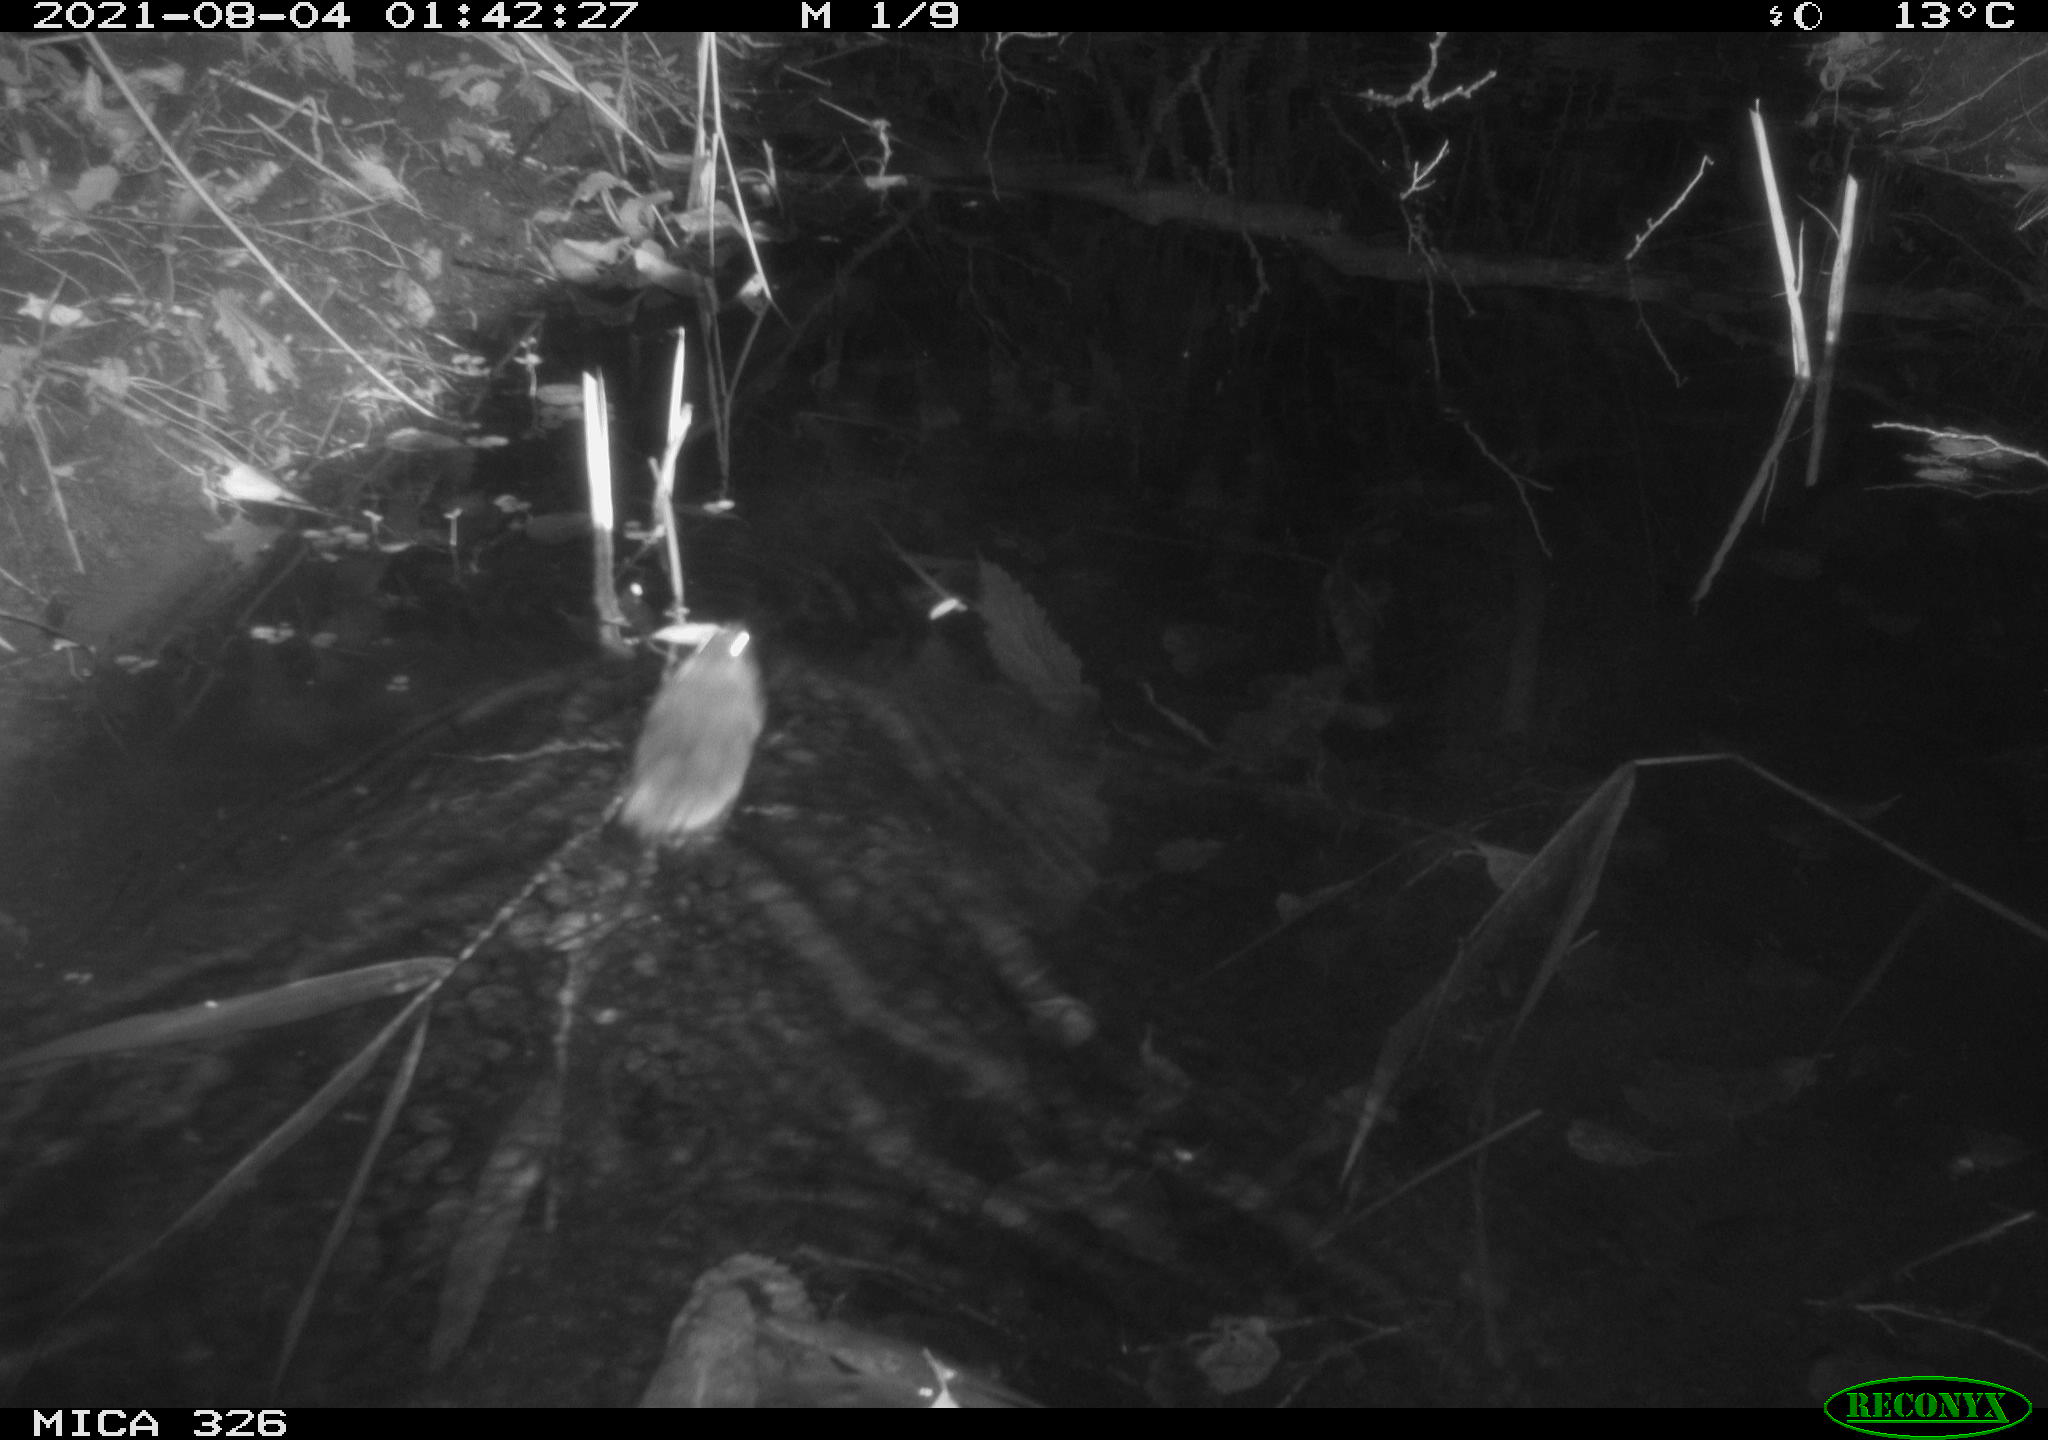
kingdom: Animalia
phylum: Chordata
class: Mammalia
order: Rodentia
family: Muridae
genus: Rattus
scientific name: Rattus norvegicus
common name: Brown rat
